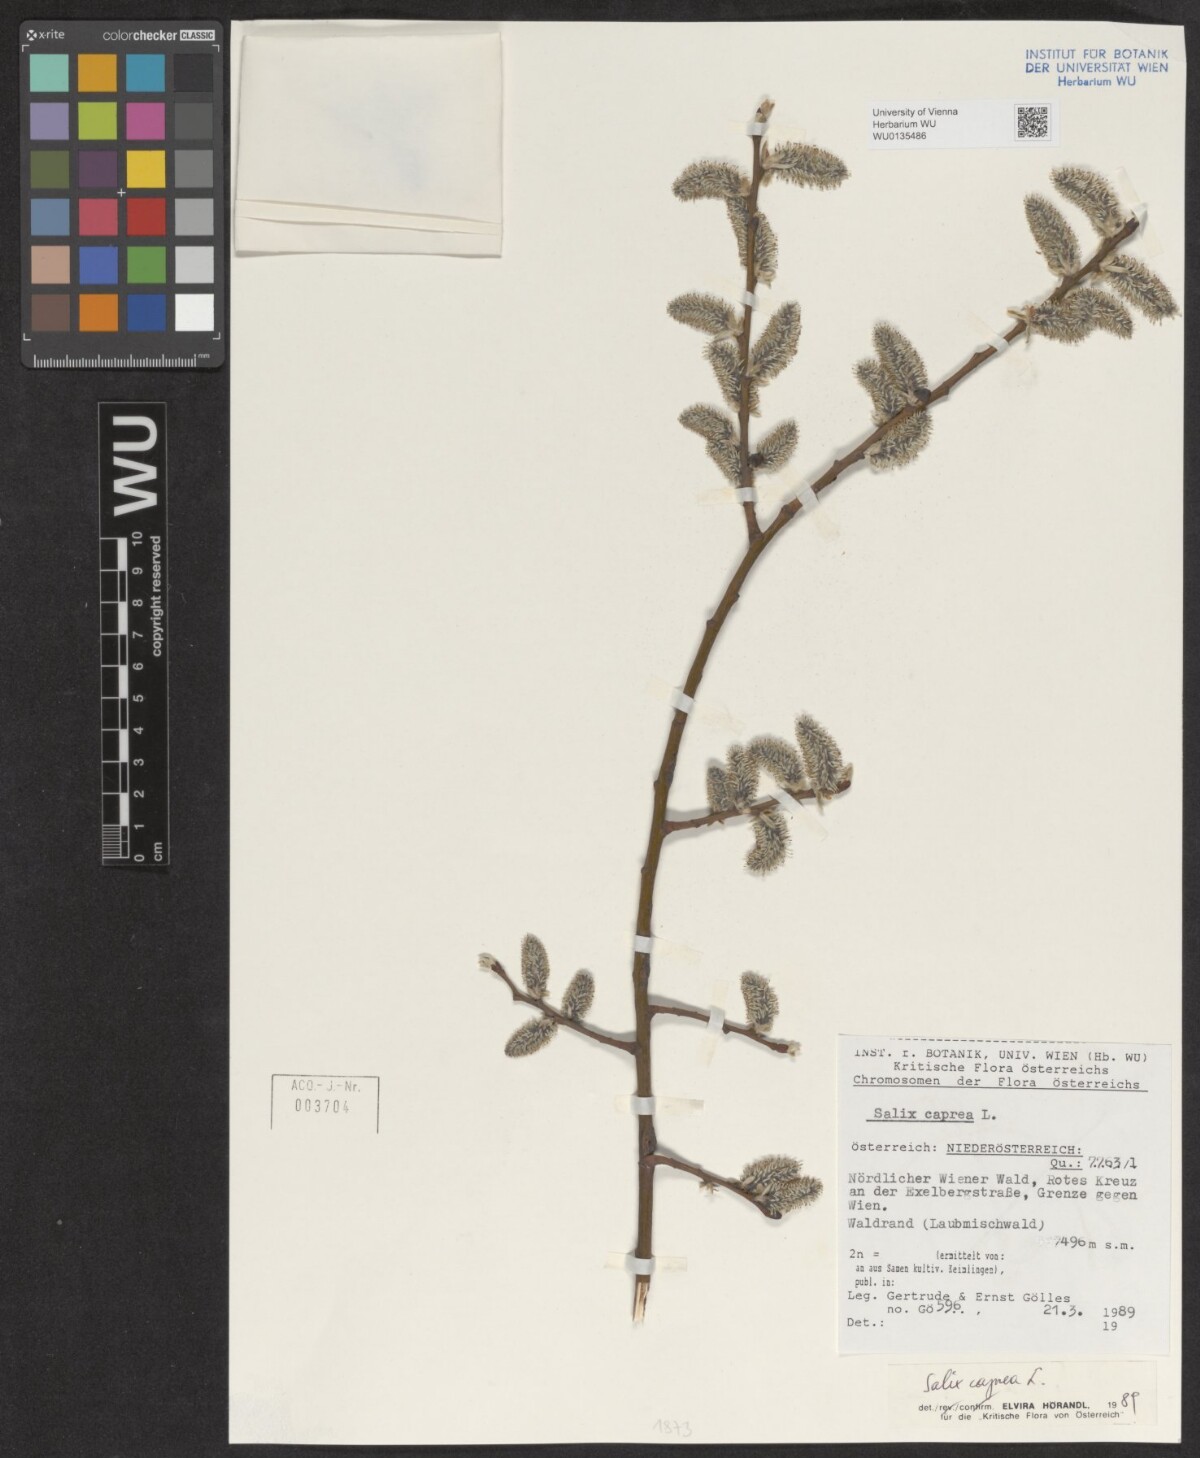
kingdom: Plantae
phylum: Tracheophyta
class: Magnoliopsida
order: Malpighiales
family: Salicaceae
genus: Salix
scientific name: Salix caprea
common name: Goat willow
